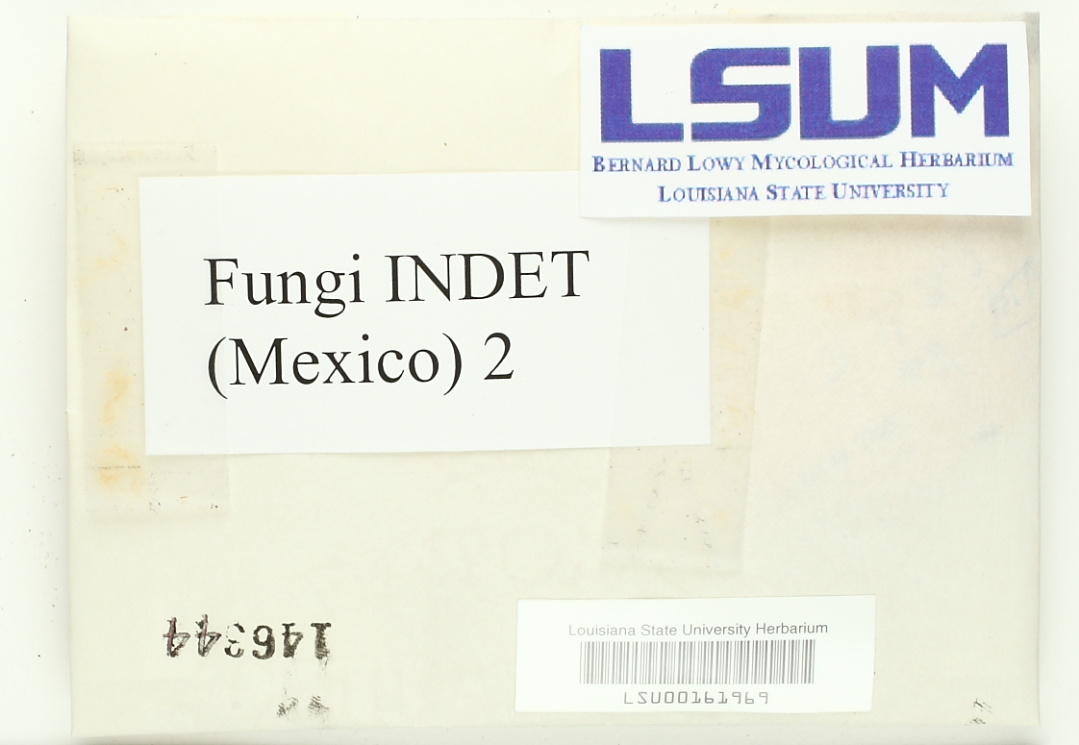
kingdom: Fungi
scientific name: Fungi
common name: Fungi
